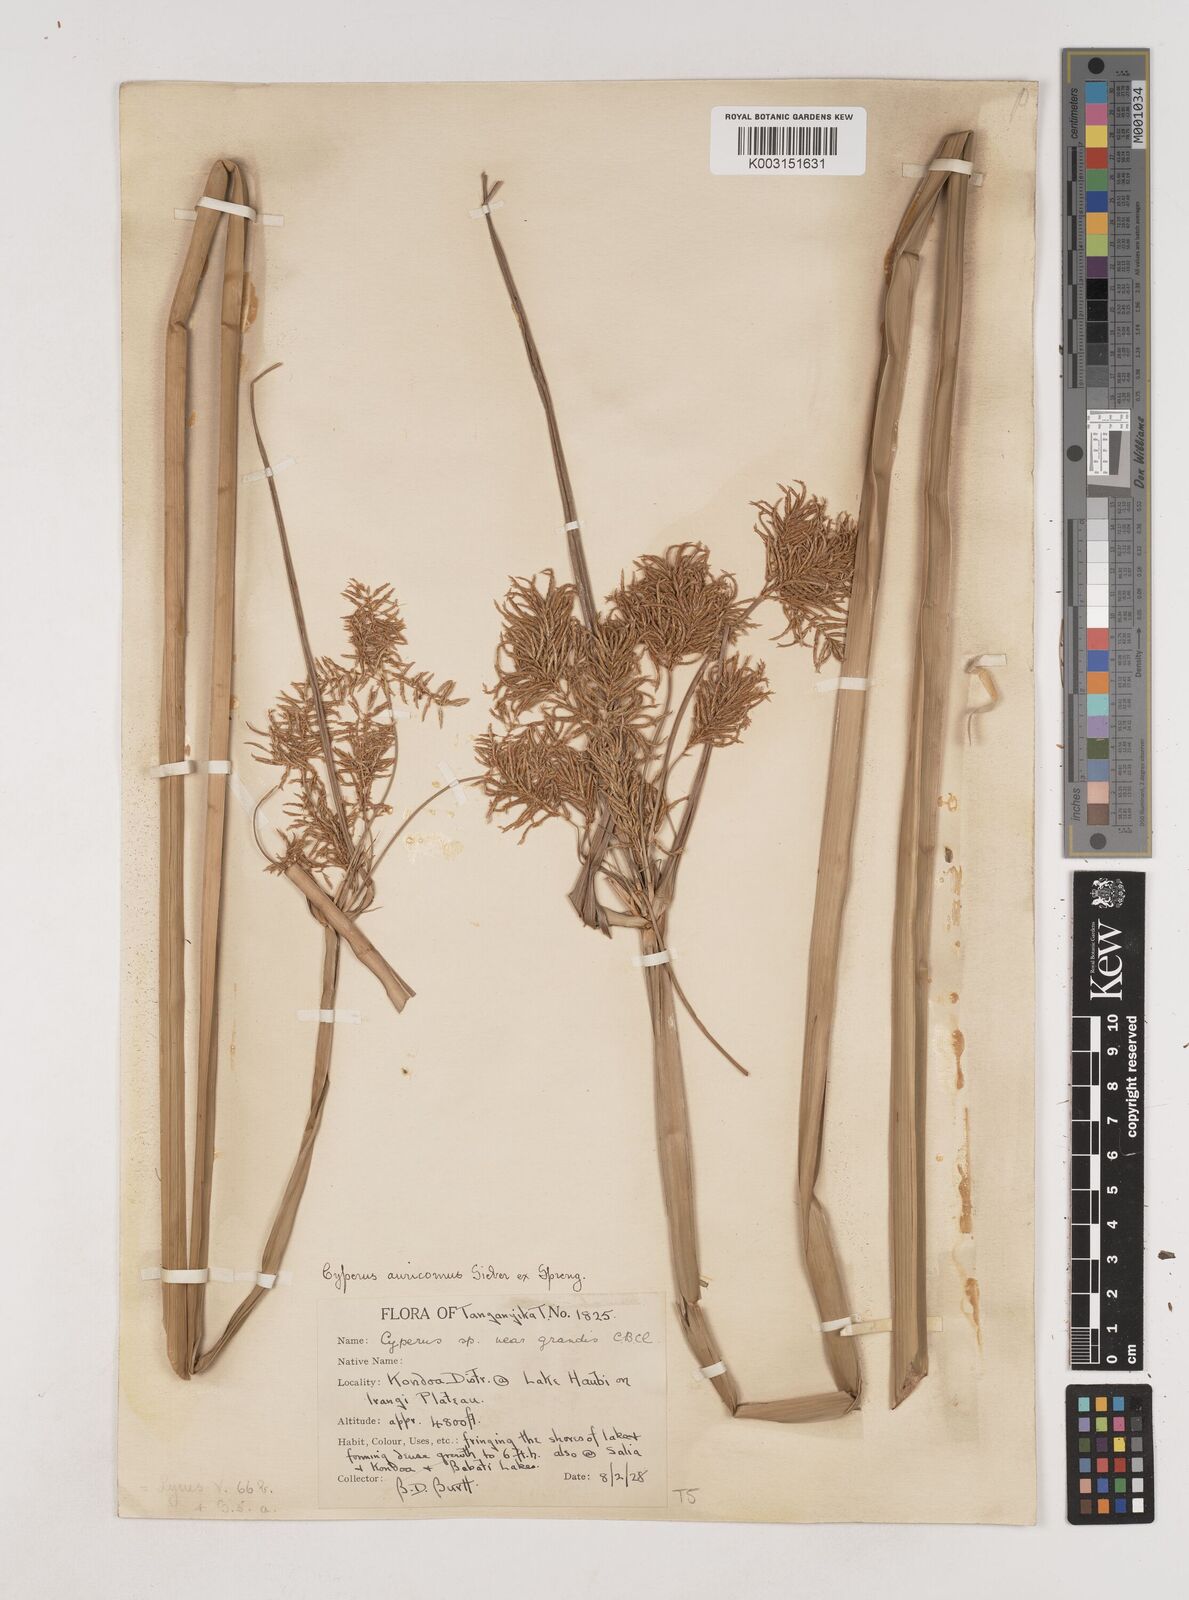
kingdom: Plantae
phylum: Tracheophyta
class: Liliopsida
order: Poales
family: Cyperaceae
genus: Cyperus
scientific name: Cyperus digitatus
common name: Finger flatsedge
